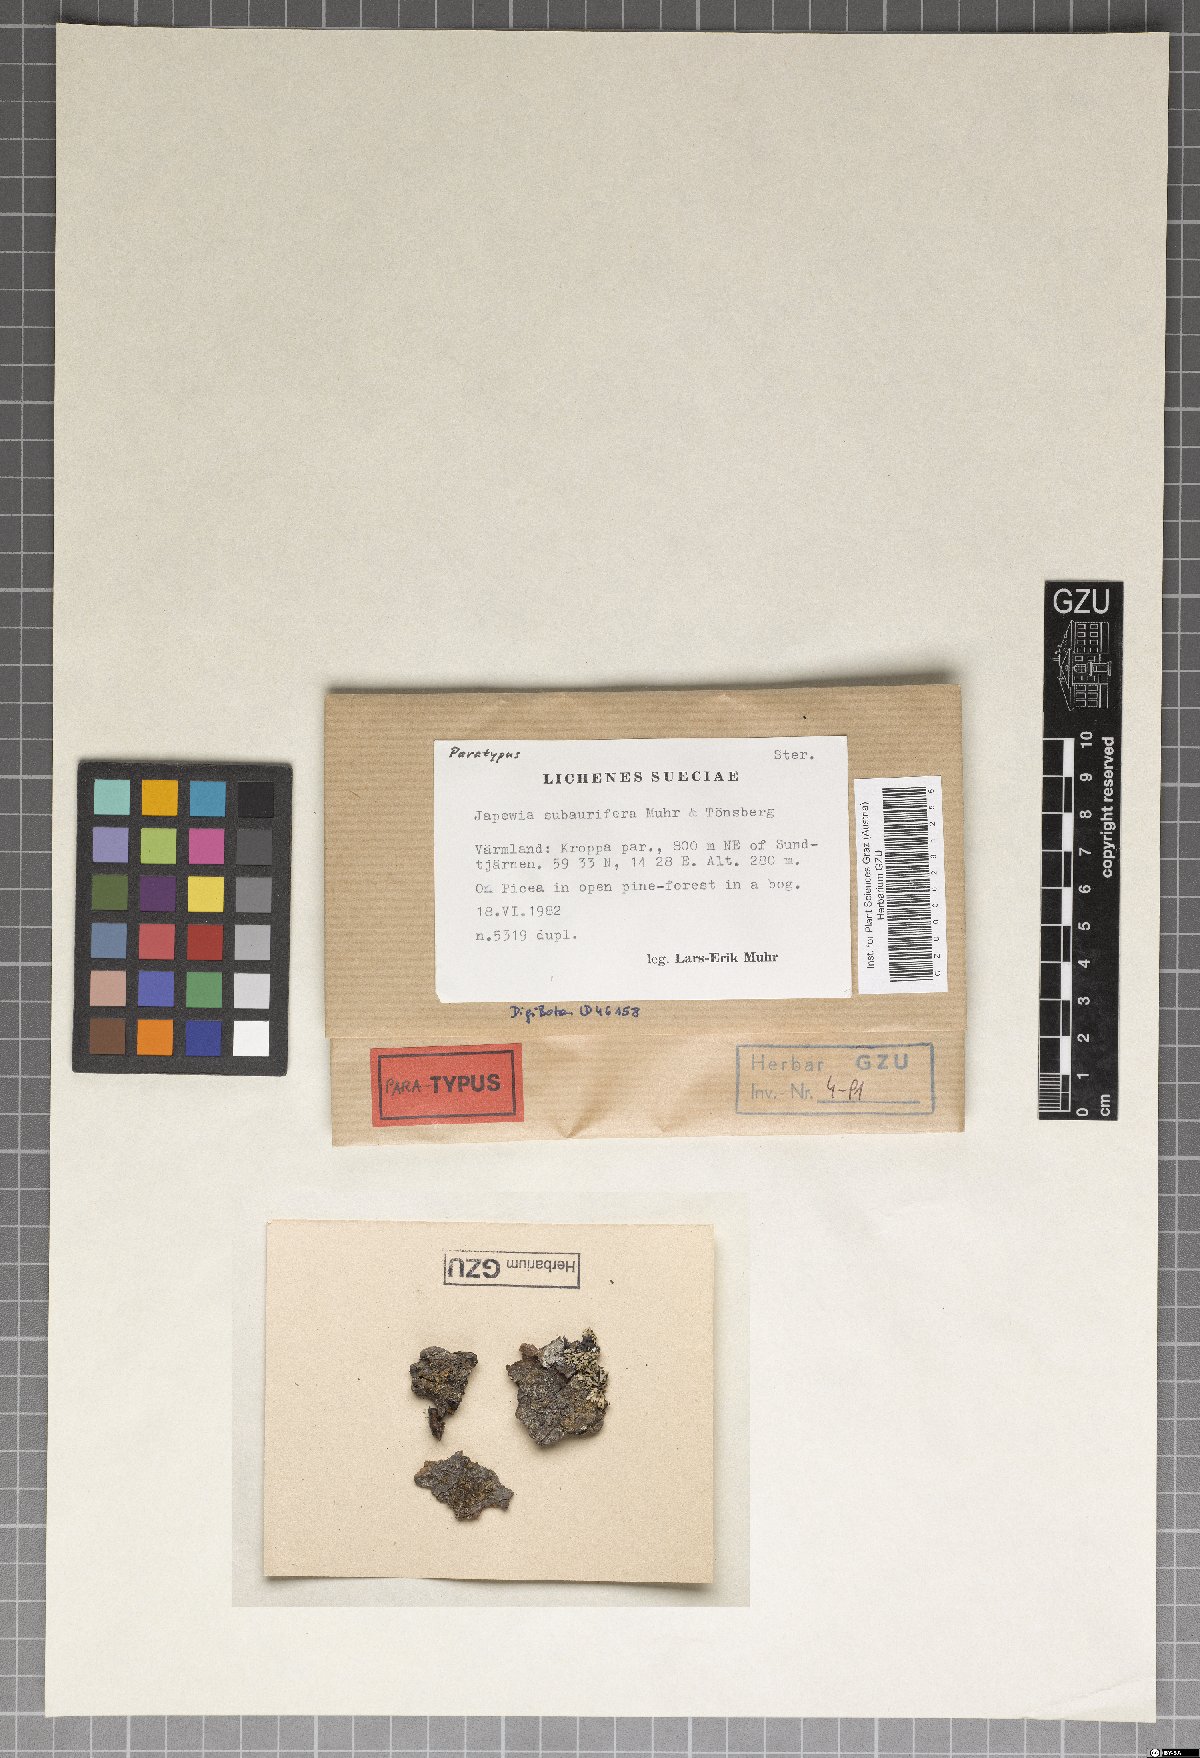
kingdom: Fungi
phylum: Ascomycota
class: Lecanoromycetes
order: Lecanorales
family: Lecanoraceae
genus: Japewia
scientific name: Japewia subaurifera
